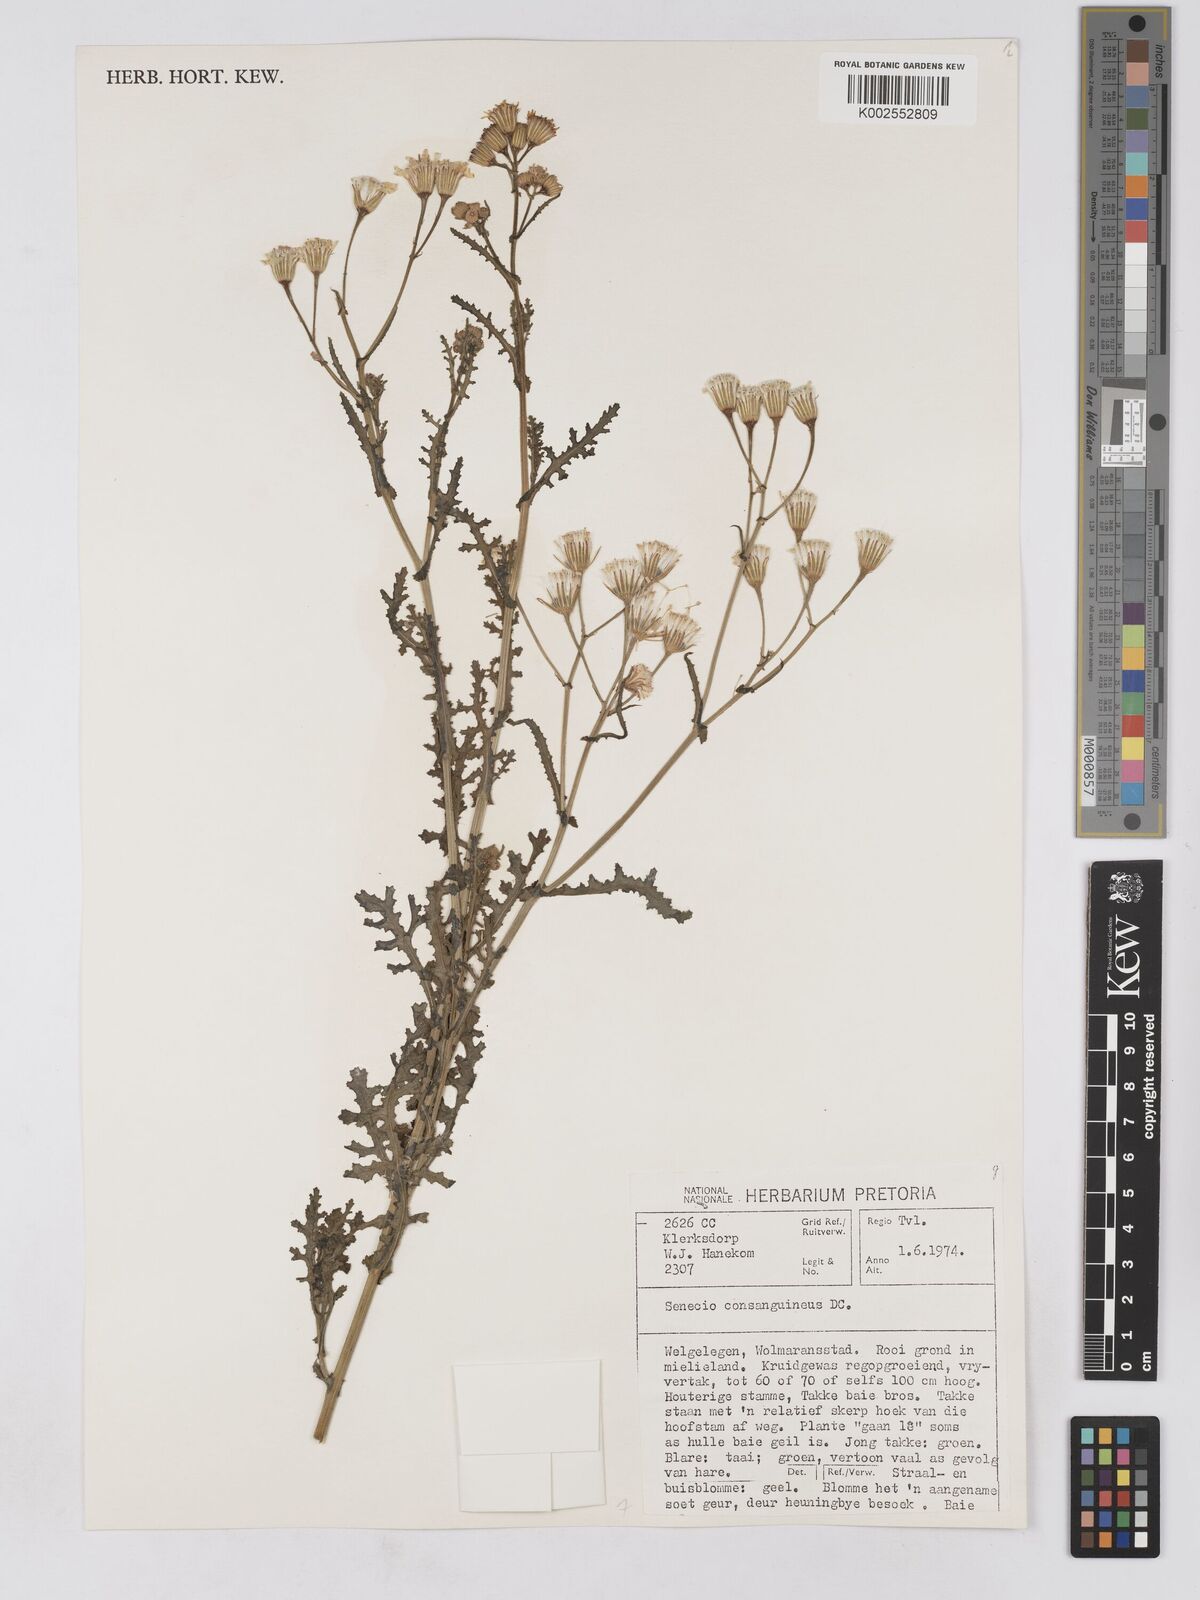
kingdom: Plantae
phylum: Tracheophyta
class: Magnoliopsida
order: Asterales
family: Asteraceae
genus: Senecio
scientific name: Senecio consanguineus
